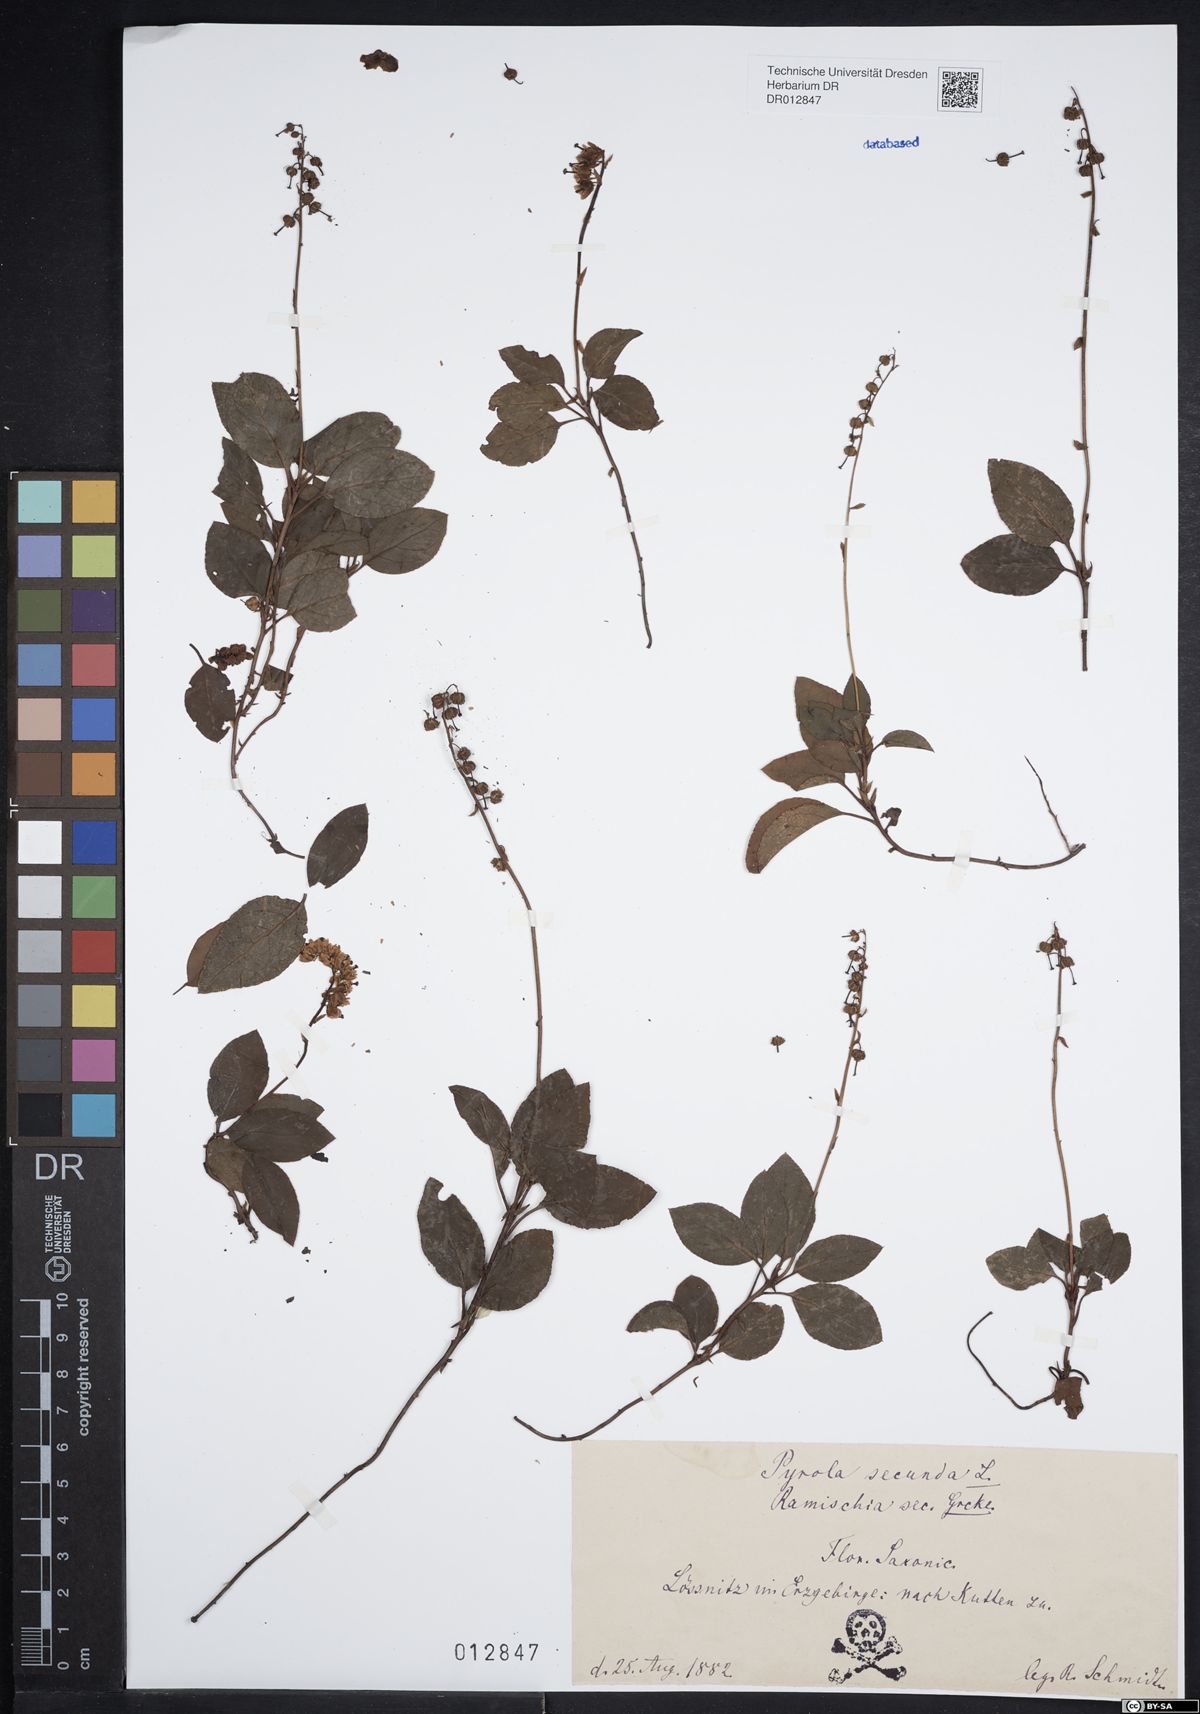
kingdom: Plantae
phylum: Tracheophyta
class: Magnoliopsida
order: Ericales
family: Ericaceae
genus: Orthilia
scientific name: Orthilia secunda
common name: One-sided orthilia
